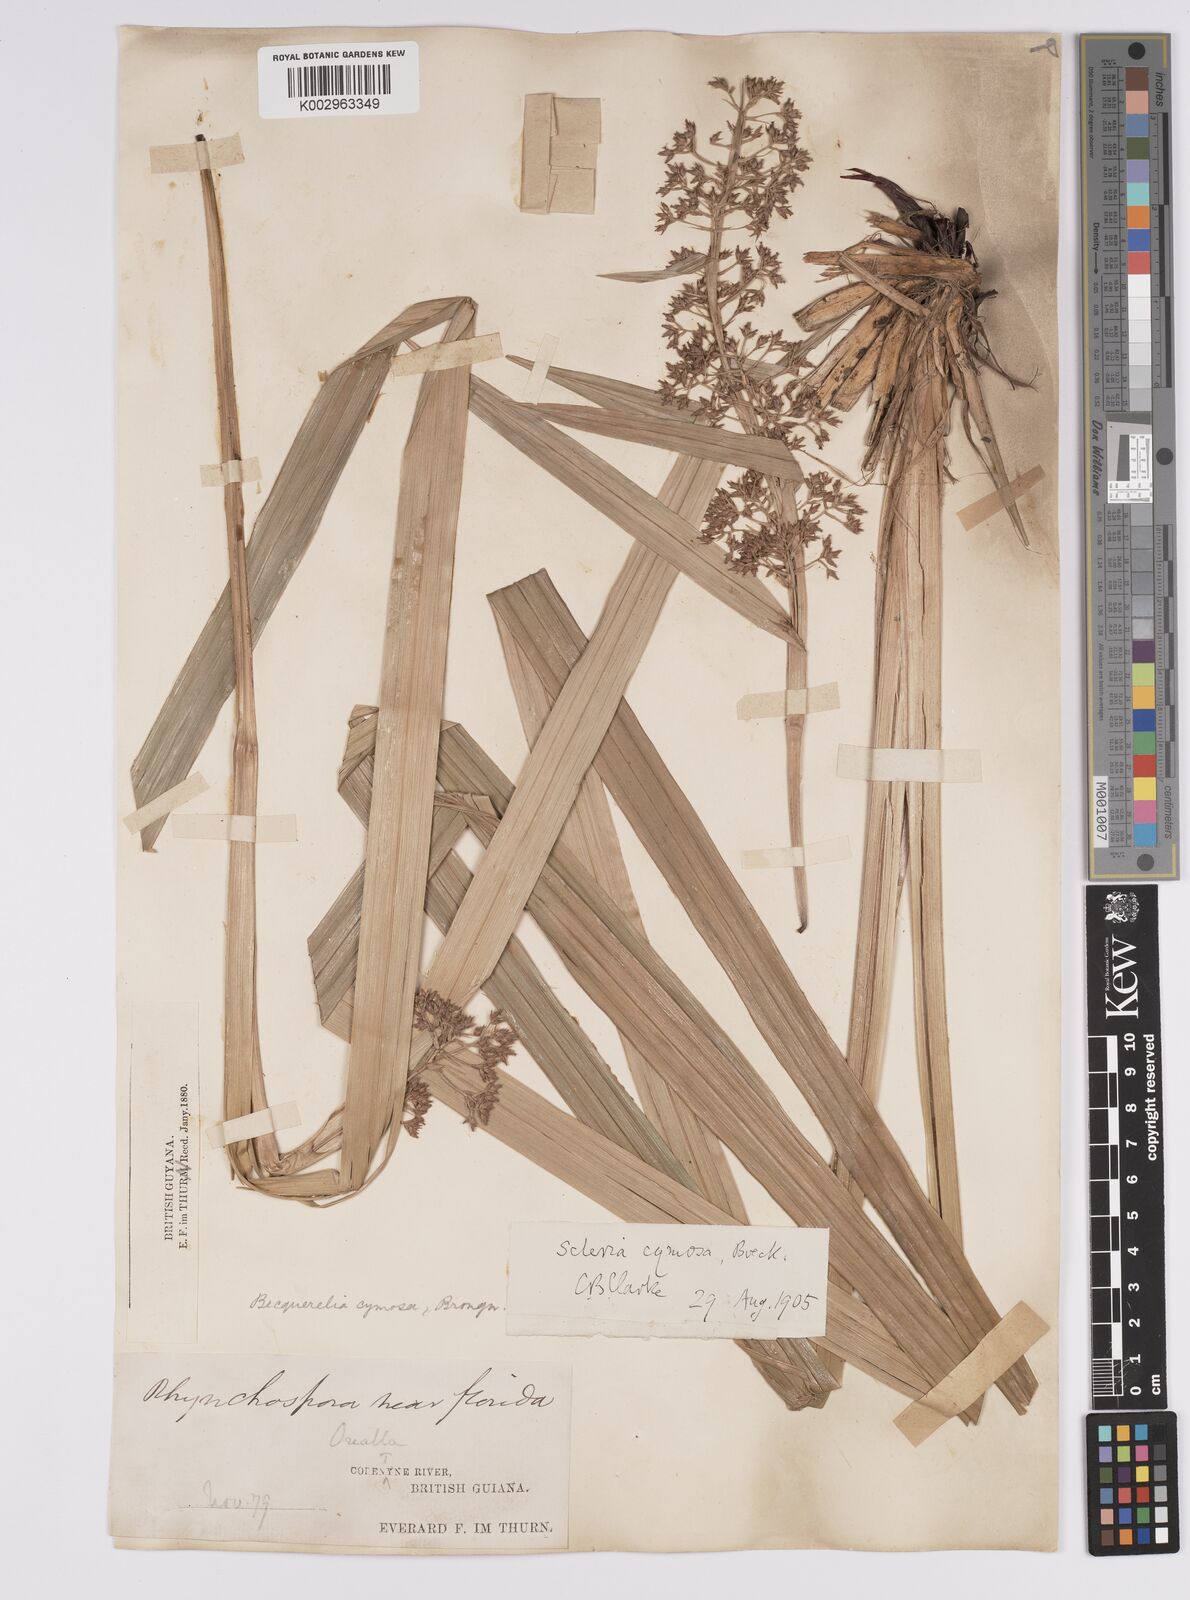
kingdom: Plantae
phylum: Tracheophyta
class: Liliopsida
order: Poales
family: Cyperaceae
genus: Becquerelia
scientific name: Becquerelia cymosa
